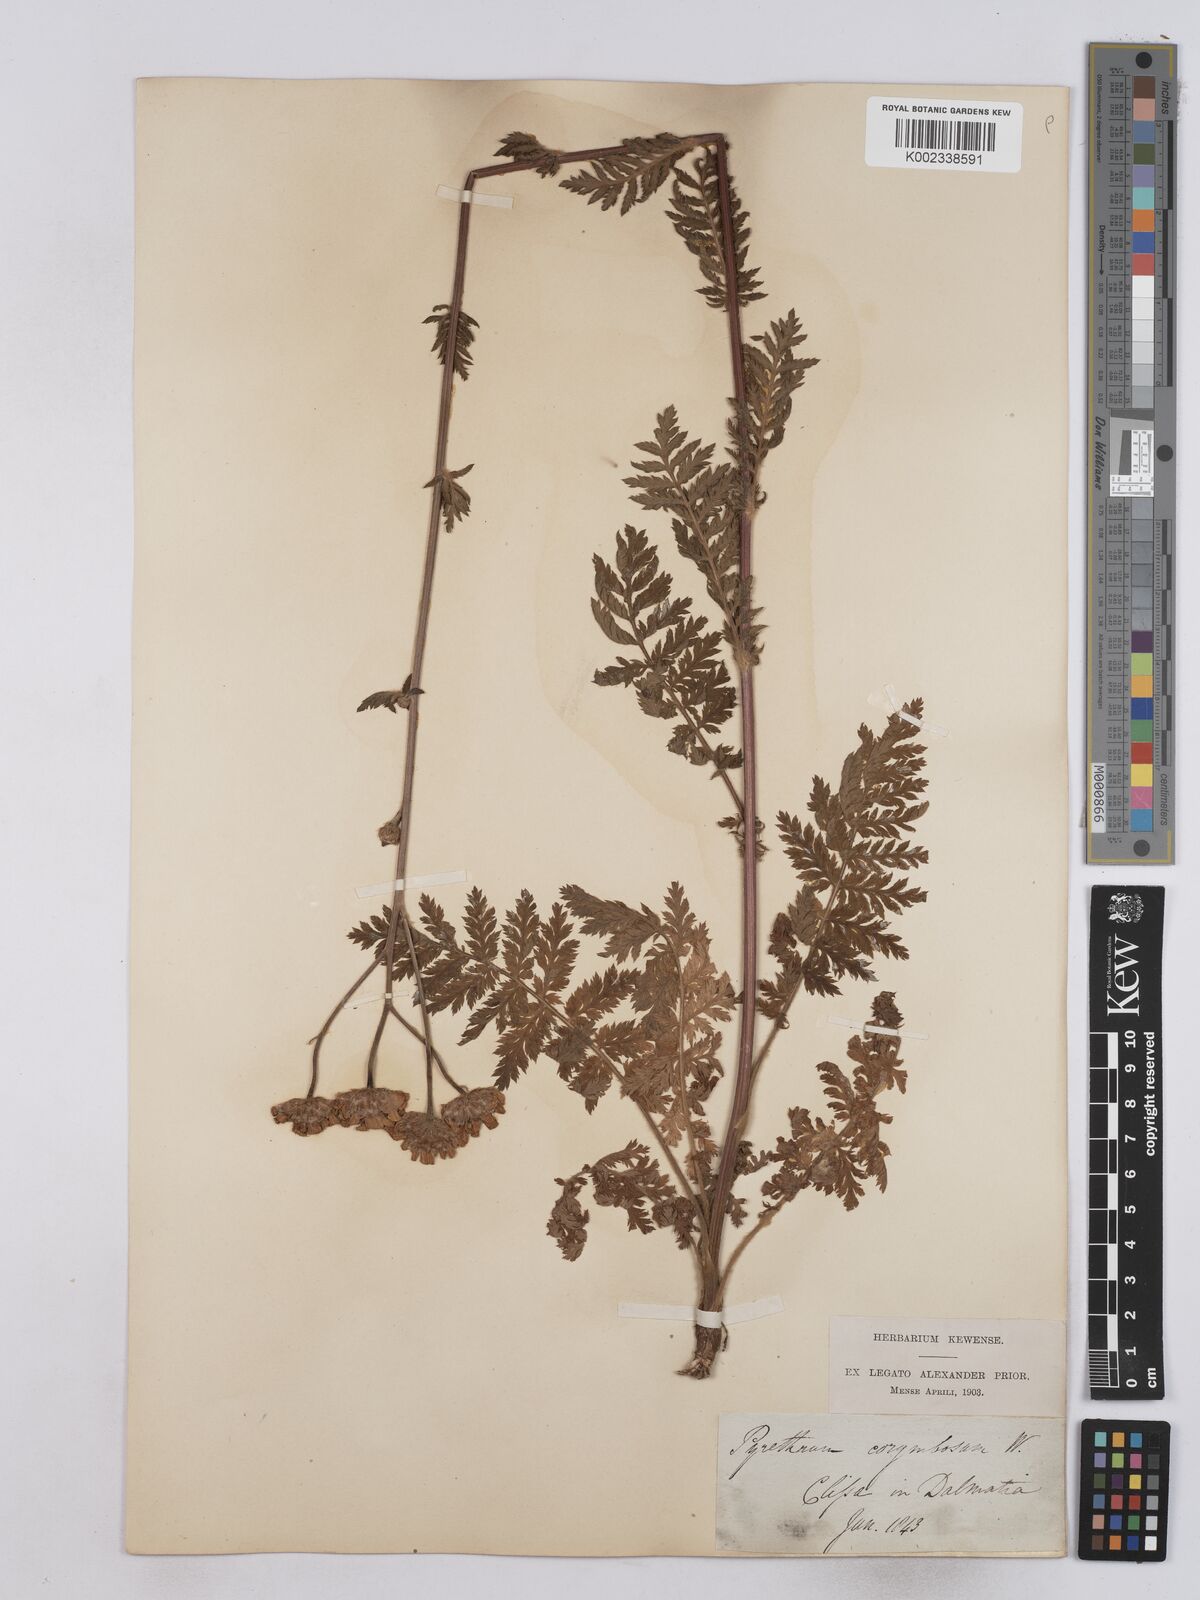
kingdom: Plantae
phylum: Tracheophyta
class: Magnoliopsida
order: Asterales
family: Asteraceae
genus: Tanacetum
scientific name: Tanacetum corymbosum
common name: Scentless feverfew
